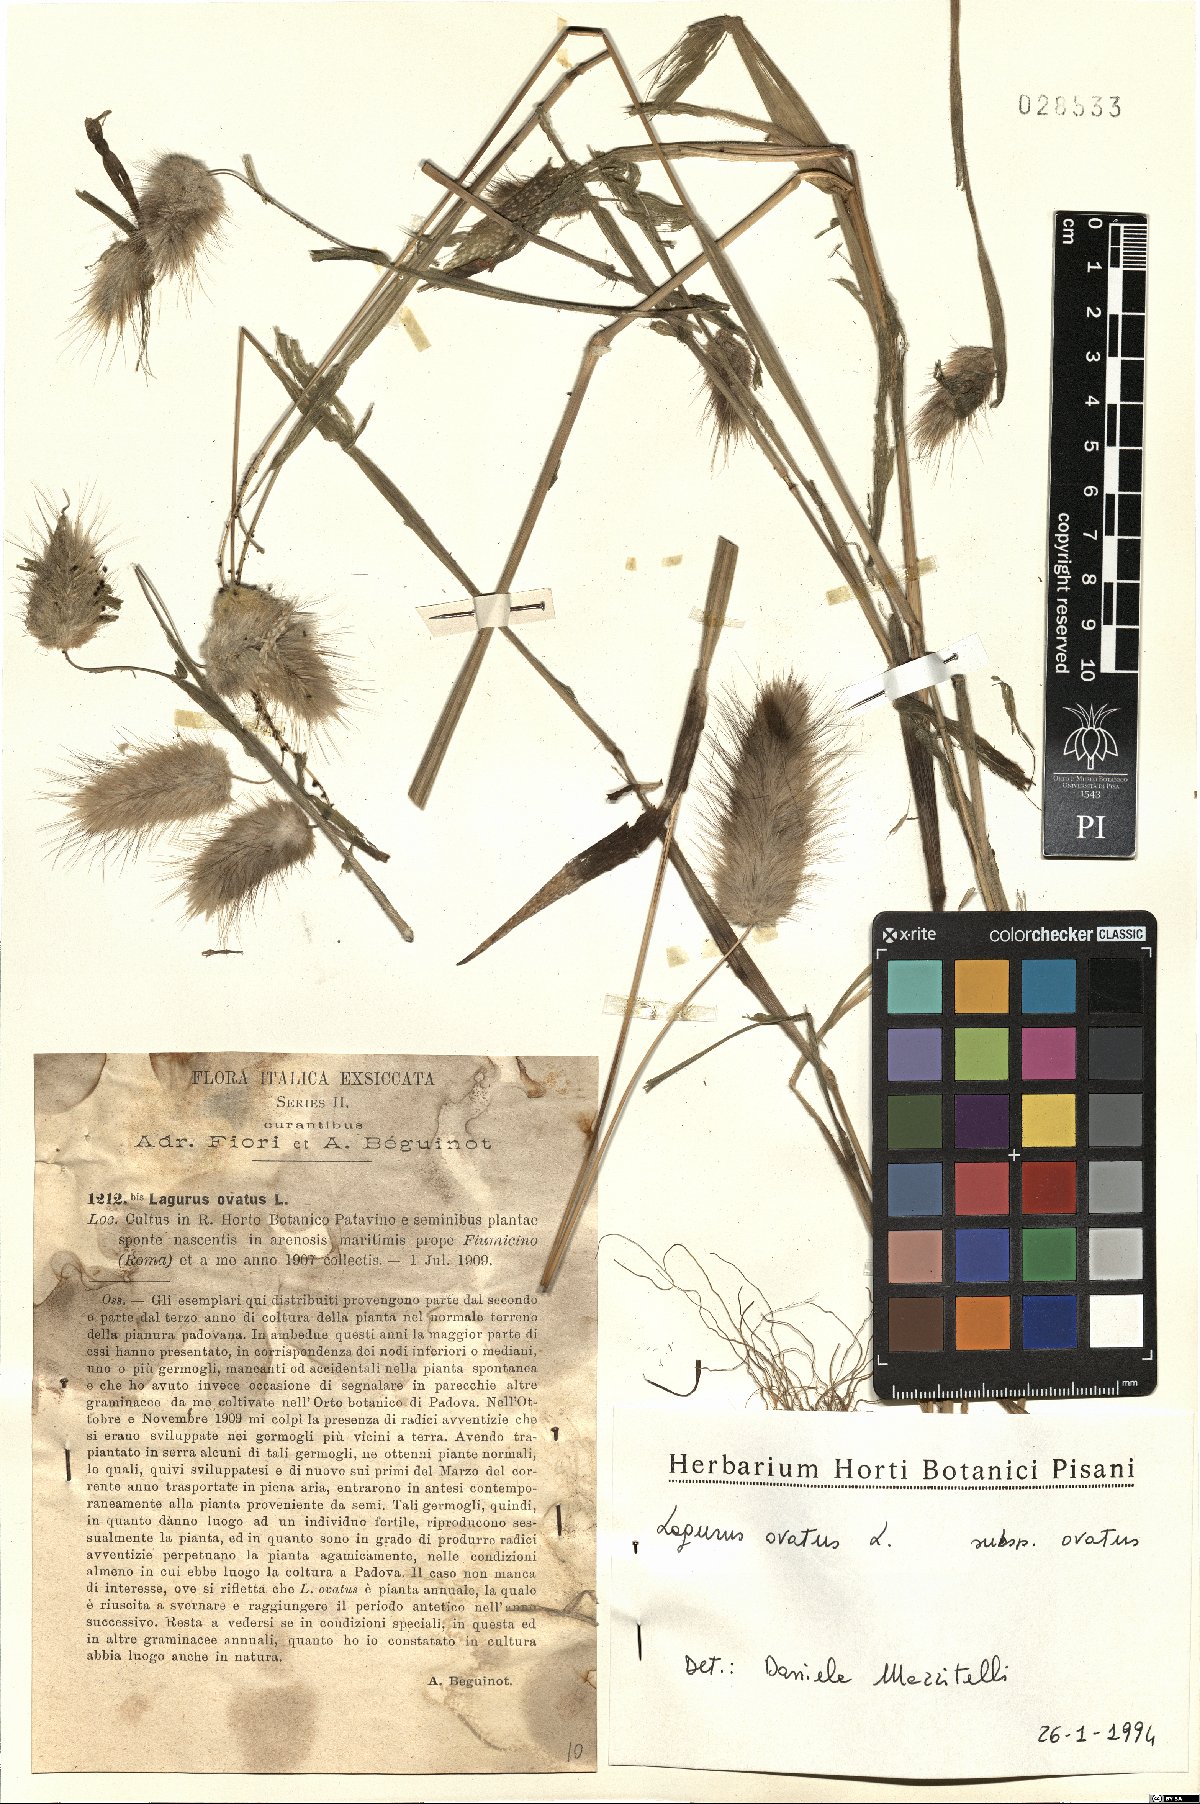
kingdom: Plantae
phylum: Tracheophyta
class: Liliopsida
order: Poales
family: Poaceae
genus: Lagurus
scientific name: Lagurus ovatus
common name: Hare's-tail
